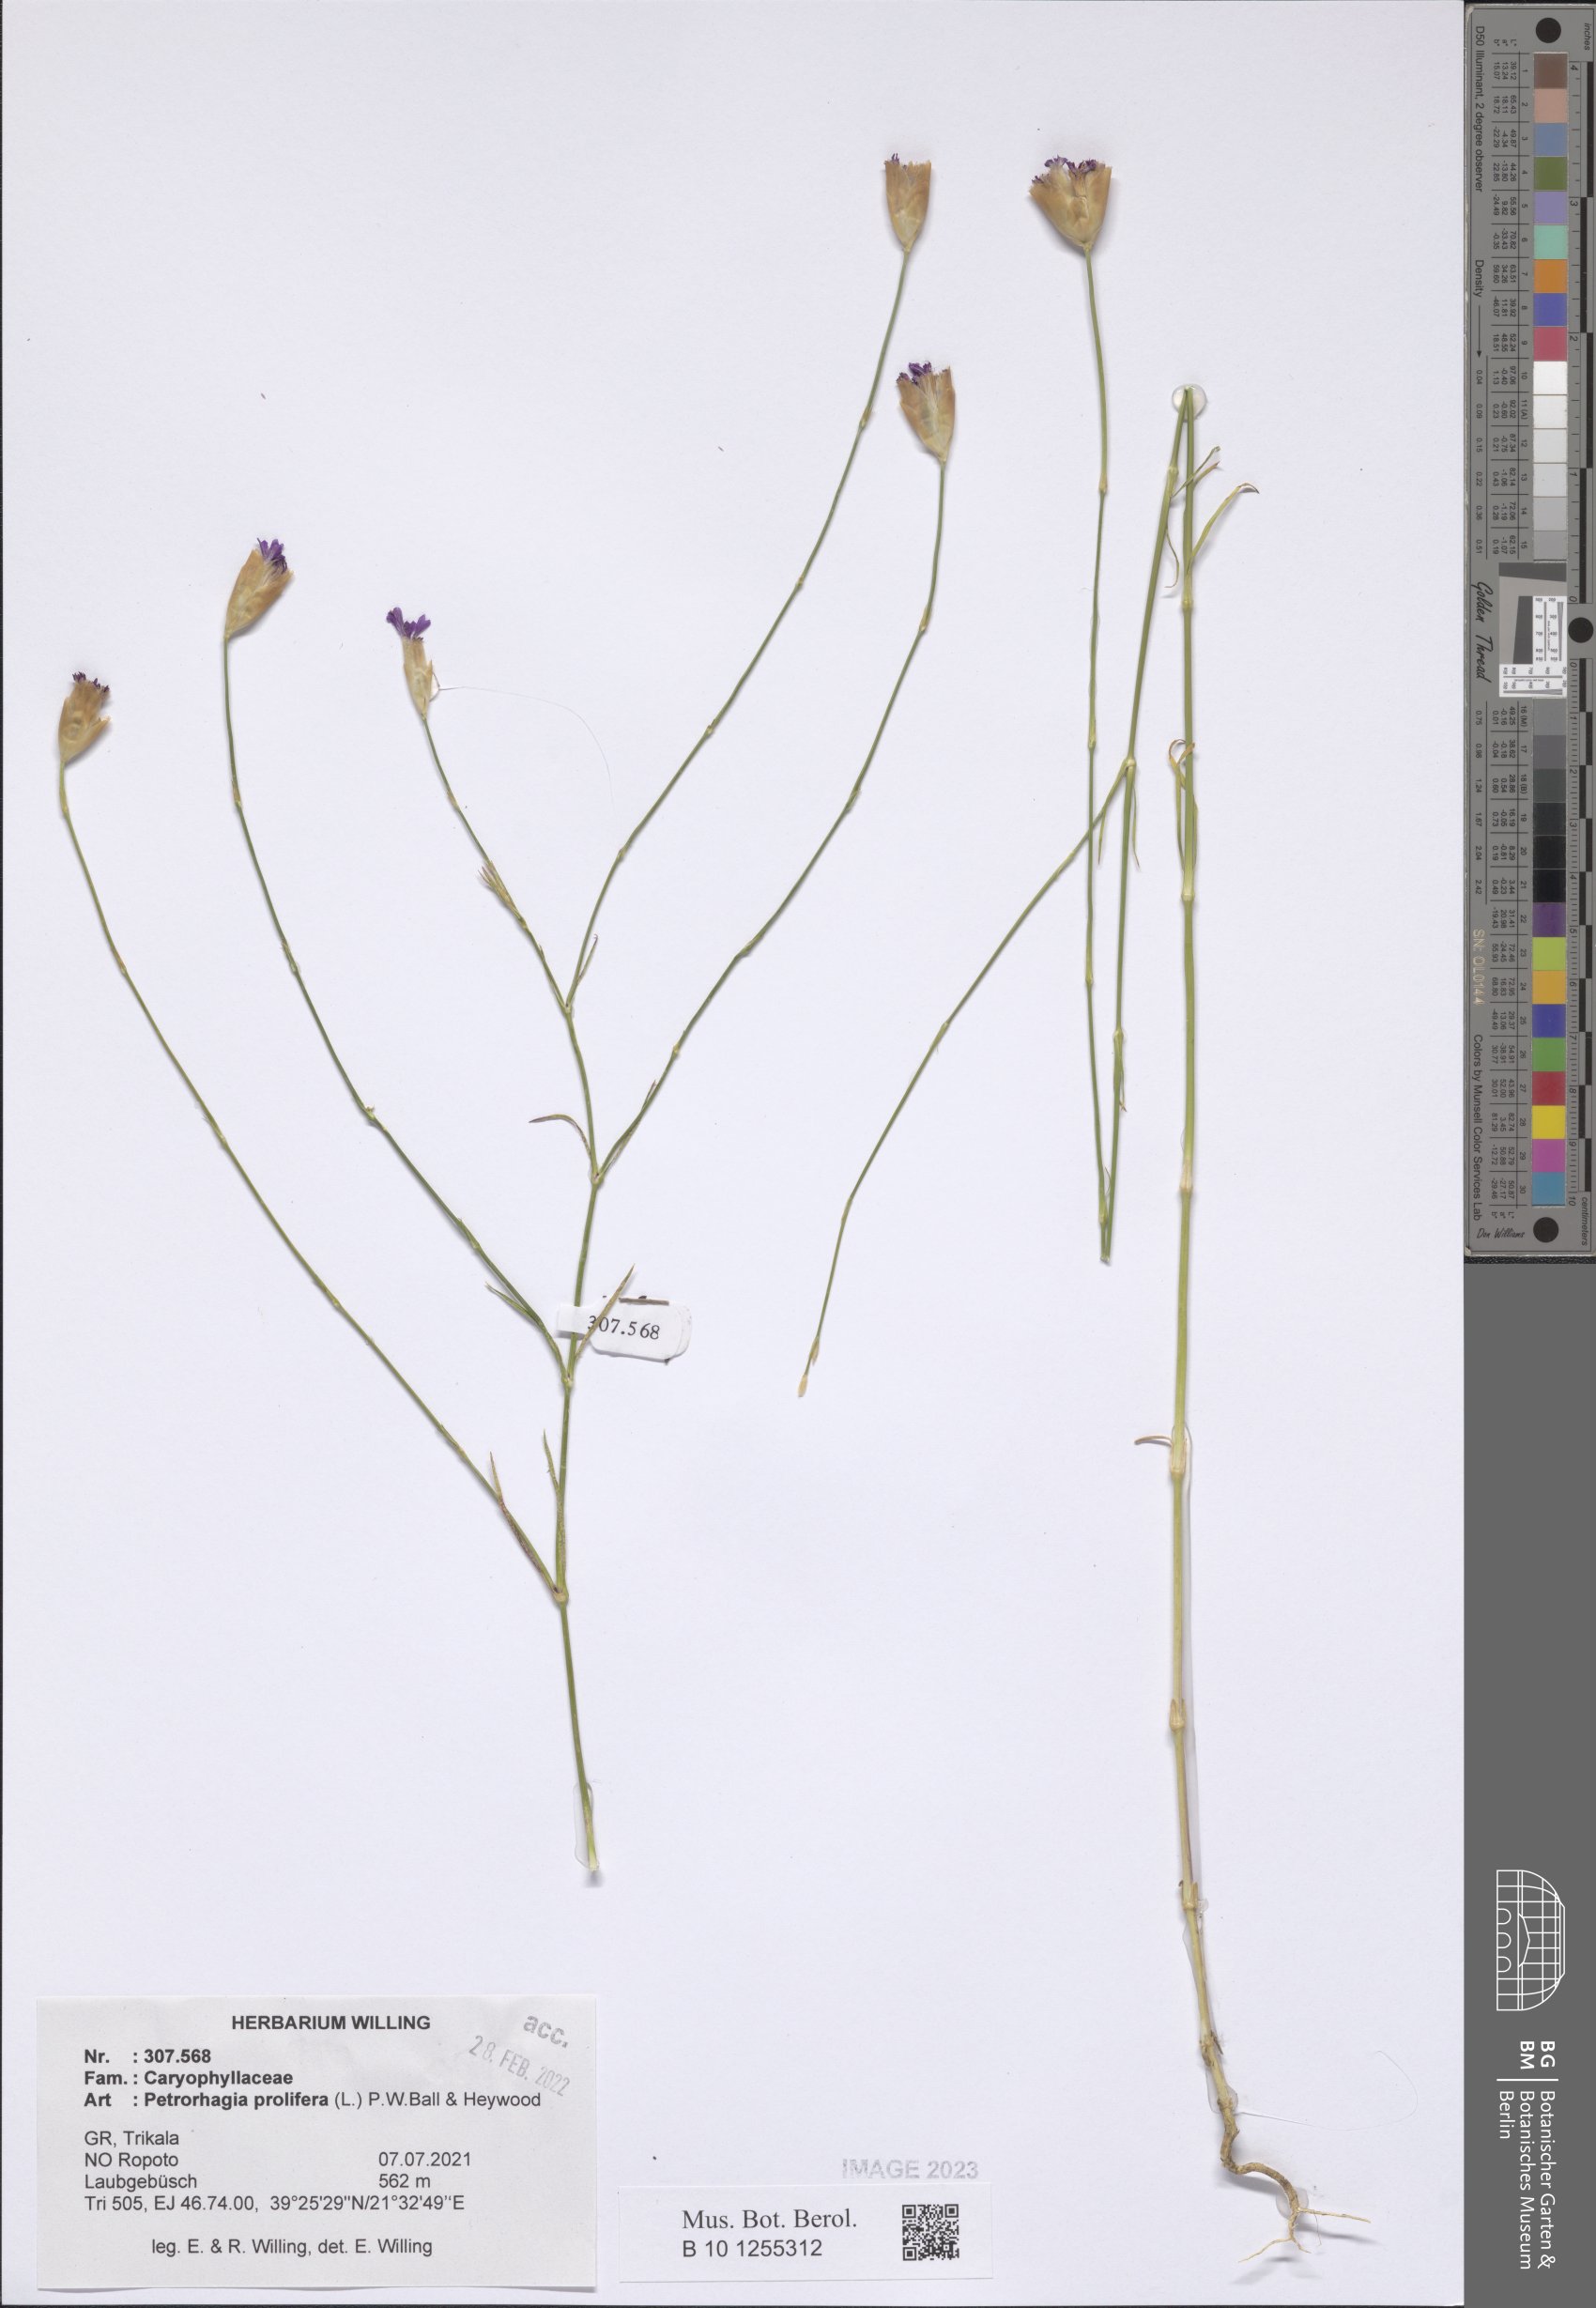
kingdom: Plantae
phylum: Tracheophyta
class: Magnoliopsida
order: Caryophyllales
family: Caryophyllaceae
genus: Petrorhagia
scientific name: Petrorhagia prolifera
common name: Proliferous pink
